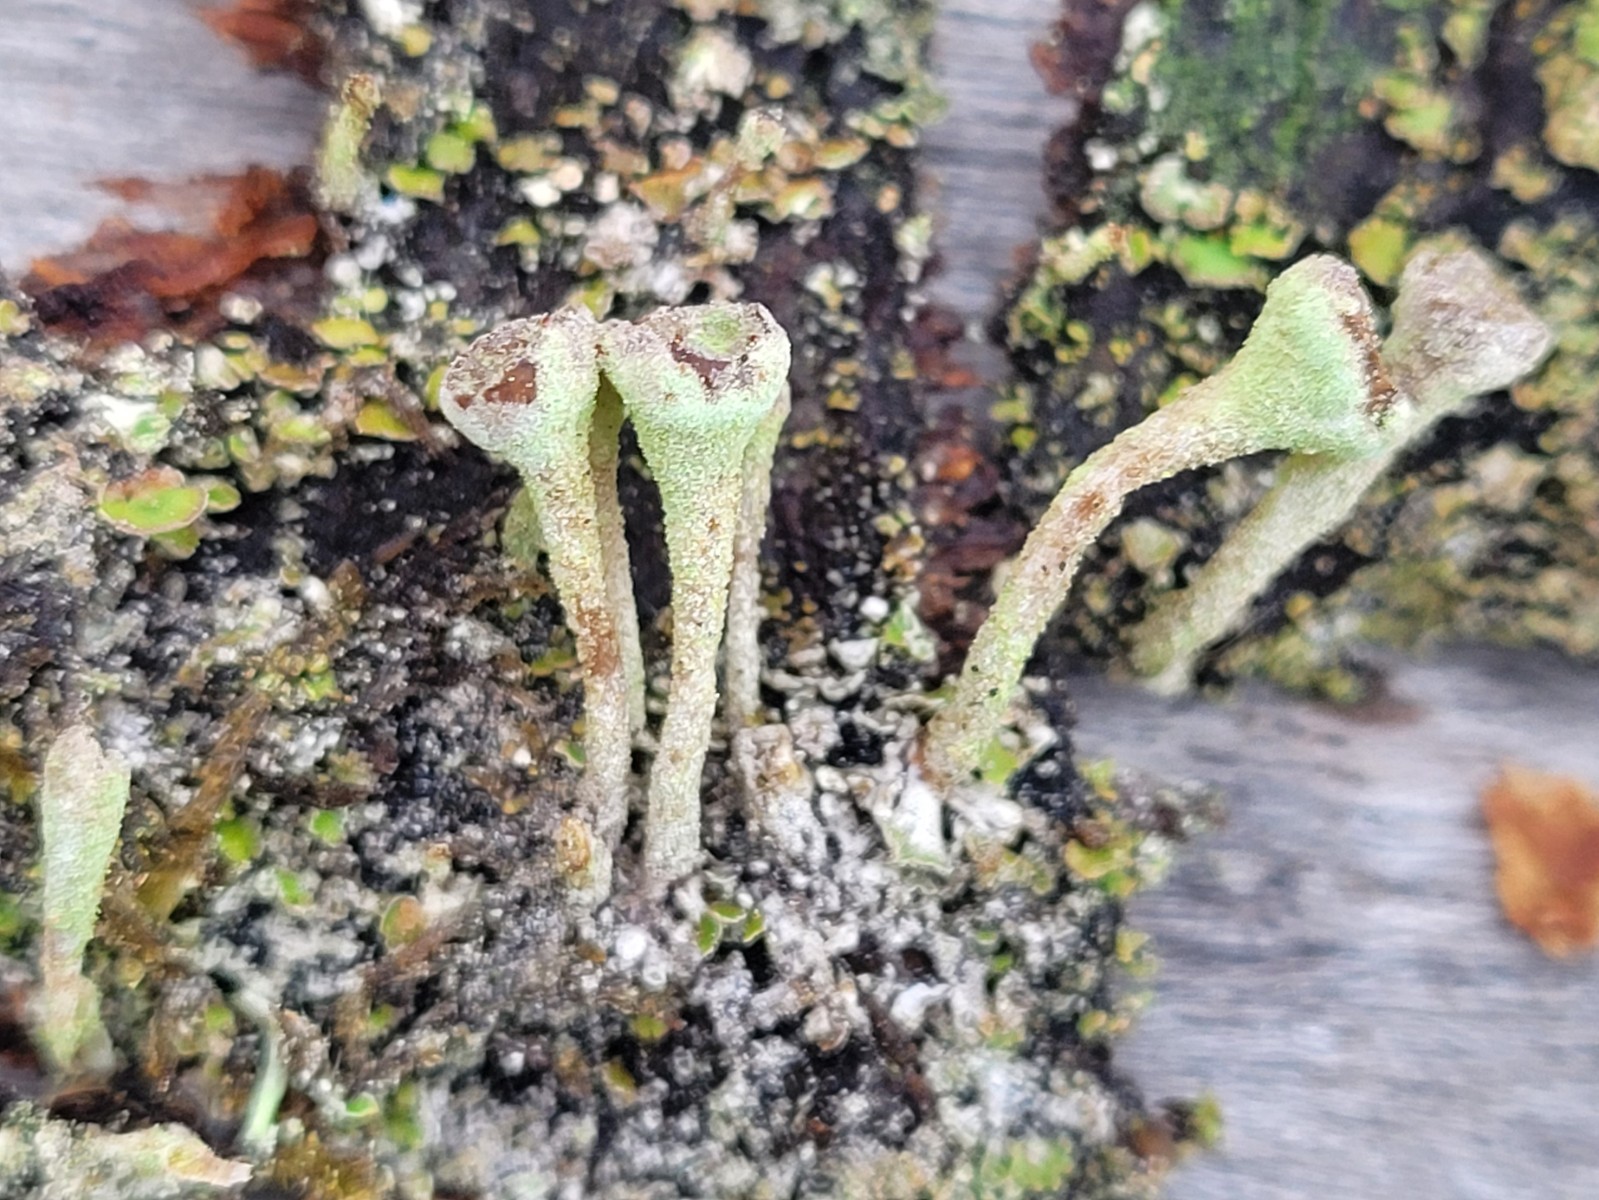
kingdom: Fungi
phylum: Ascomycota
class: Lecanoromycetes
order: Lecanorales
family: Cladoniaceae
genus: Cladonia
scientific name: Cladonia fimbriata
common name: bleggrøn bægerlav
